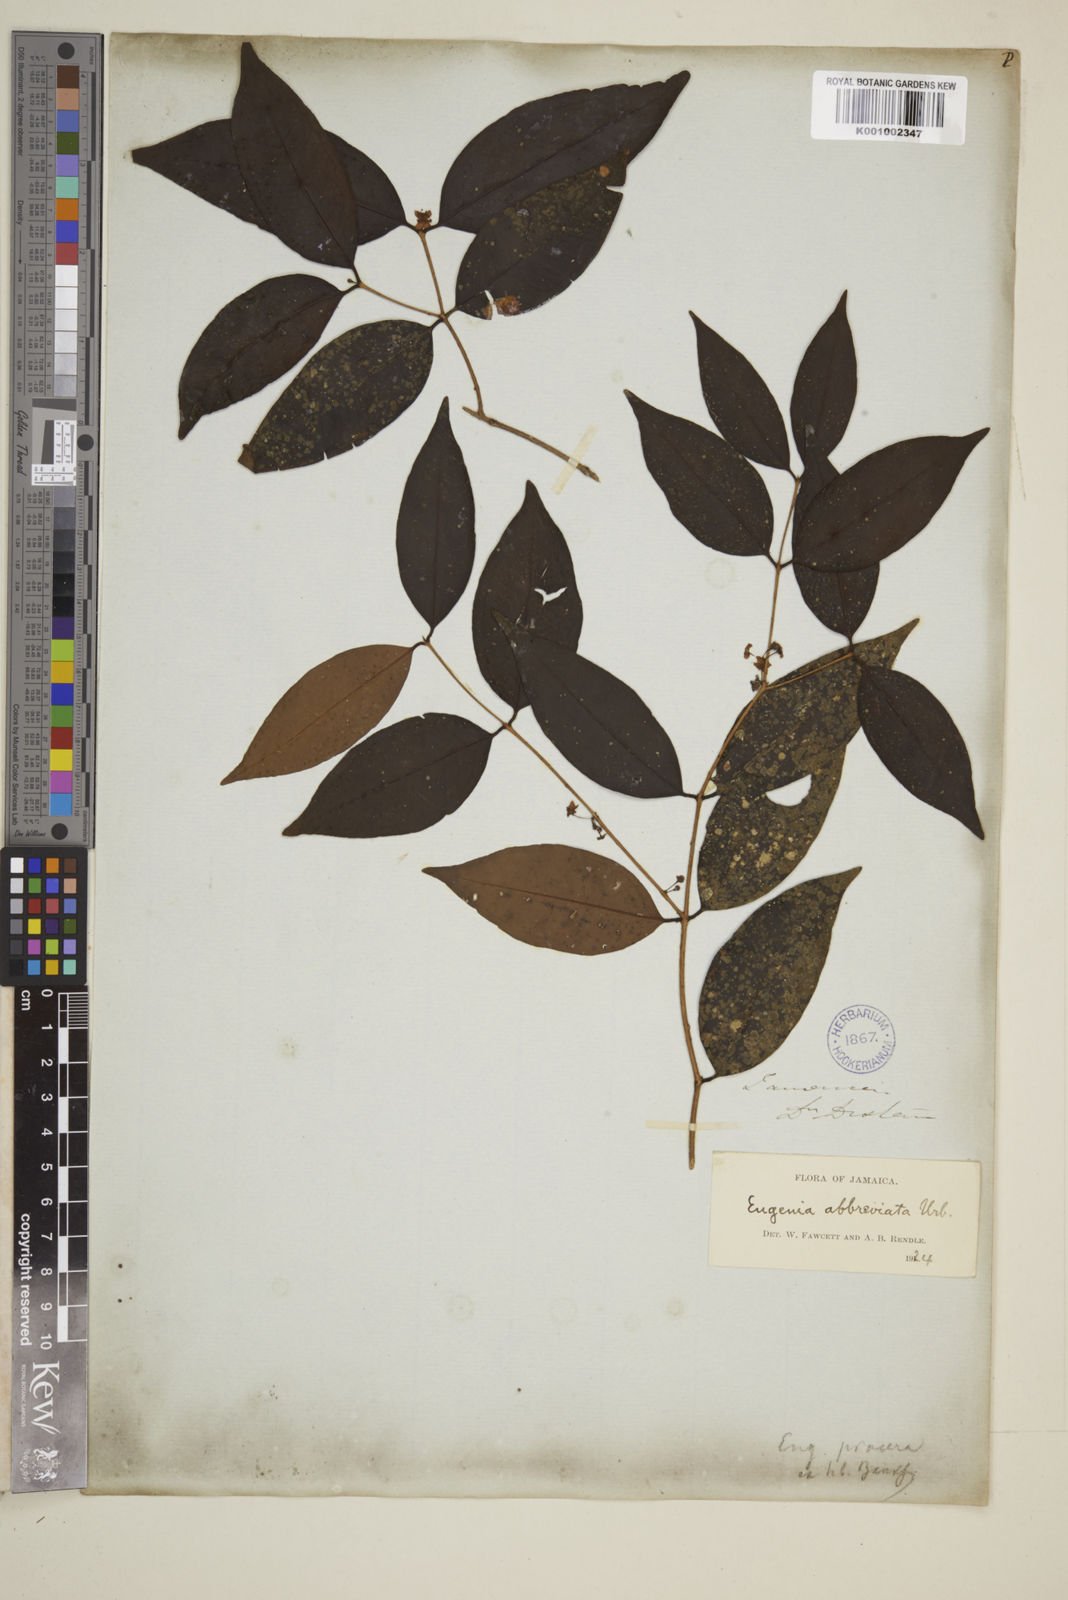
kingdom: Plantae
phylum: Tracheophyta
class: Magnoliopsida
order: Myrtales
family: Myrtaceae
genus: Eugenia
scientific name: Eugenia abbreviata
